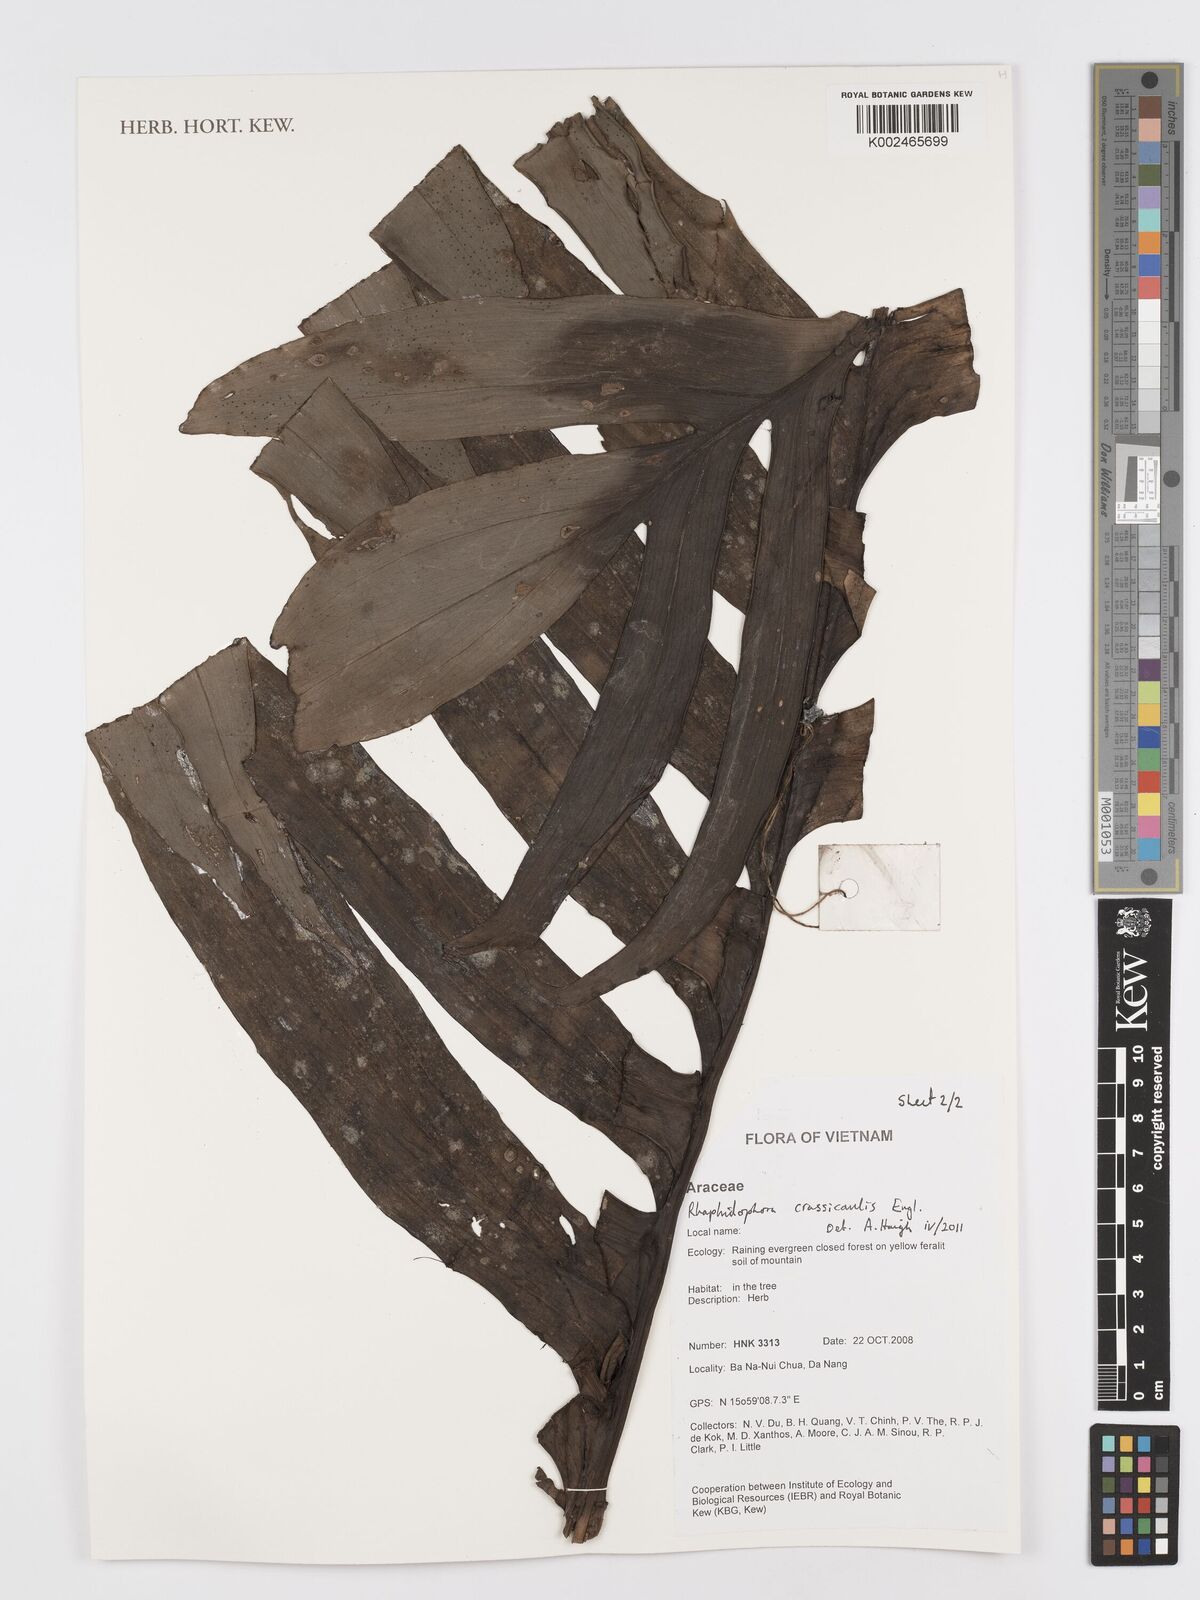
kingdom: Plantae
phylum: Tracheophyta
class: Liliopsida
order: Alismatales
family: Araceae
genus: Rhaphidophora
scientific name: Rhaphidophora crassicaulis
